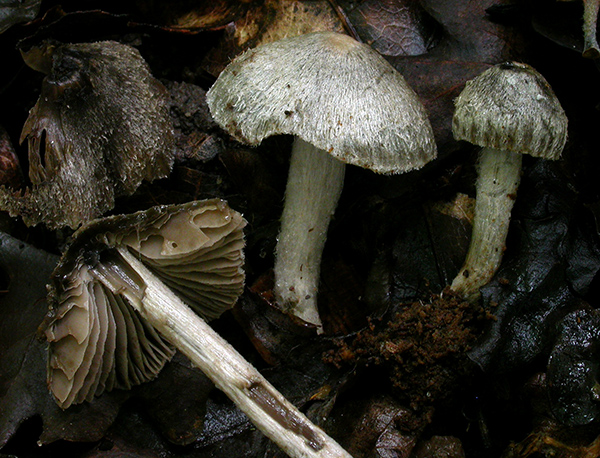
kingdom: Fungi
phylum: Basidiomycota
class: Agaricomycetes
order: Agaricales
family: Entolomataceae
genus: Entoloma
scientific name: Entoloma araneosum
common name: spindelvævs-rødblad
